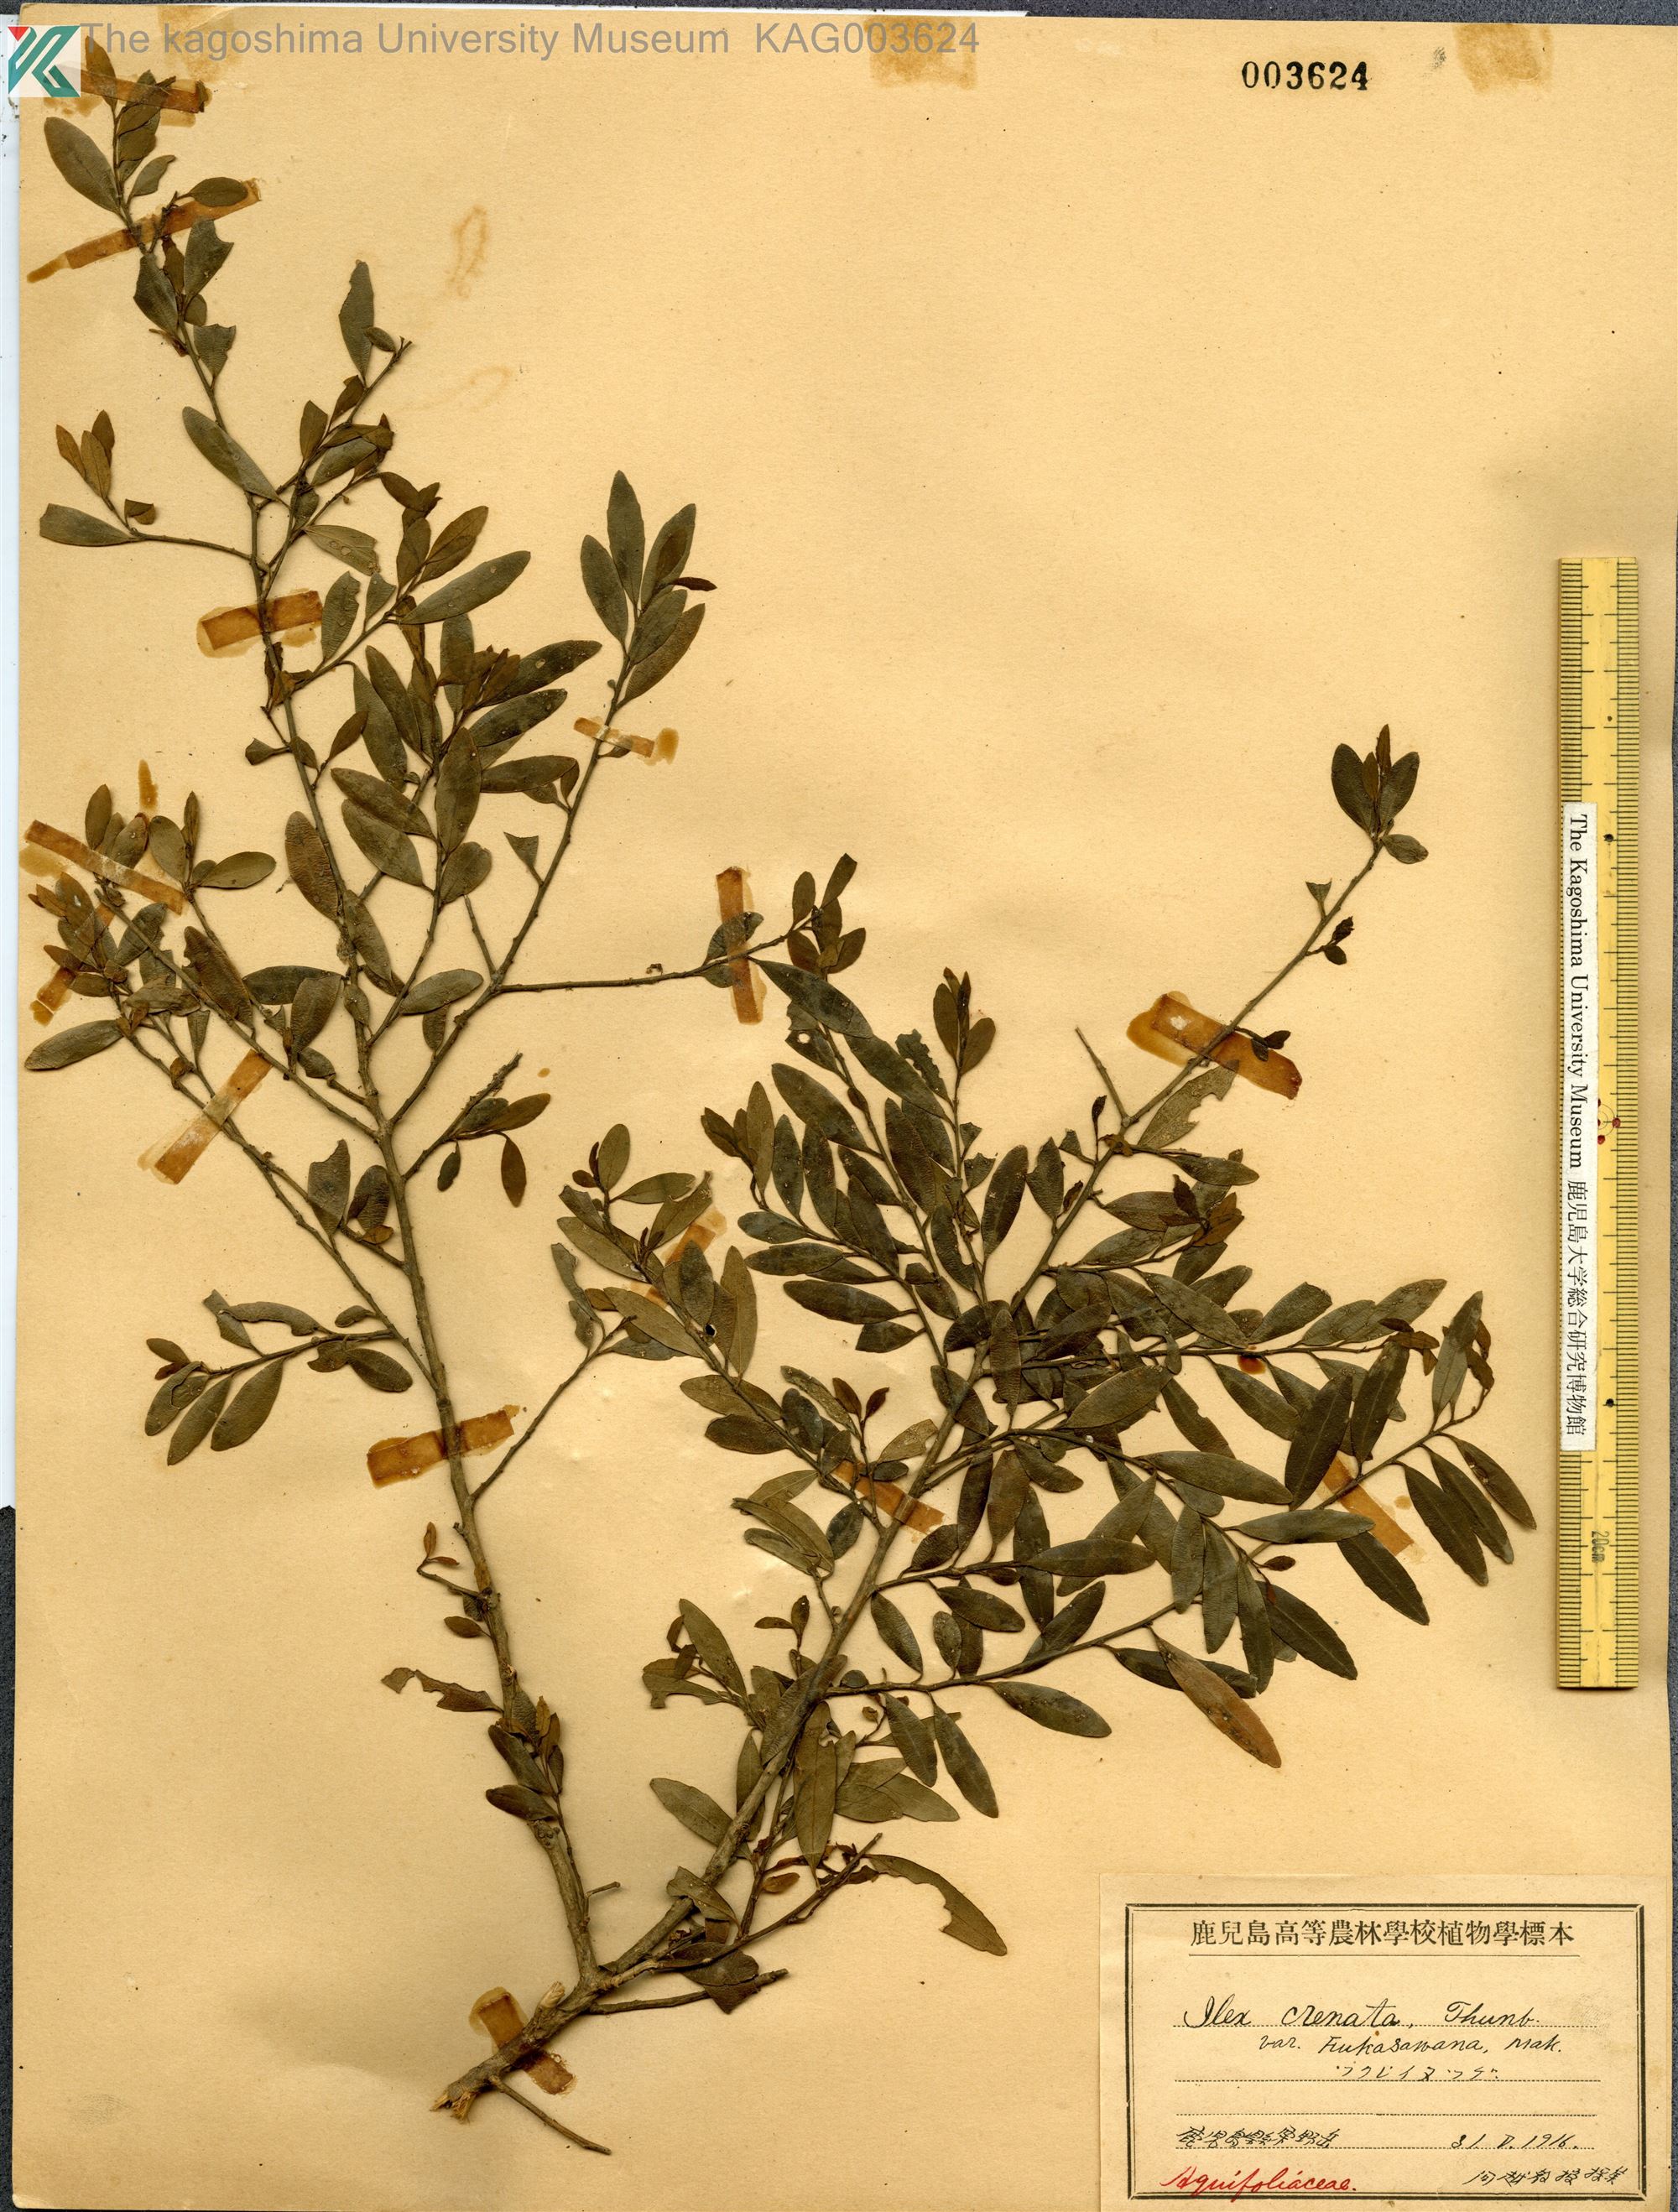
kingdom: Plantae
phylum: Tracheophyta
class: Magnoliopsida
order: Aquifoliales
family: Aquifoliaceae
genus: Ilex
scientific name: Ilex crenata
